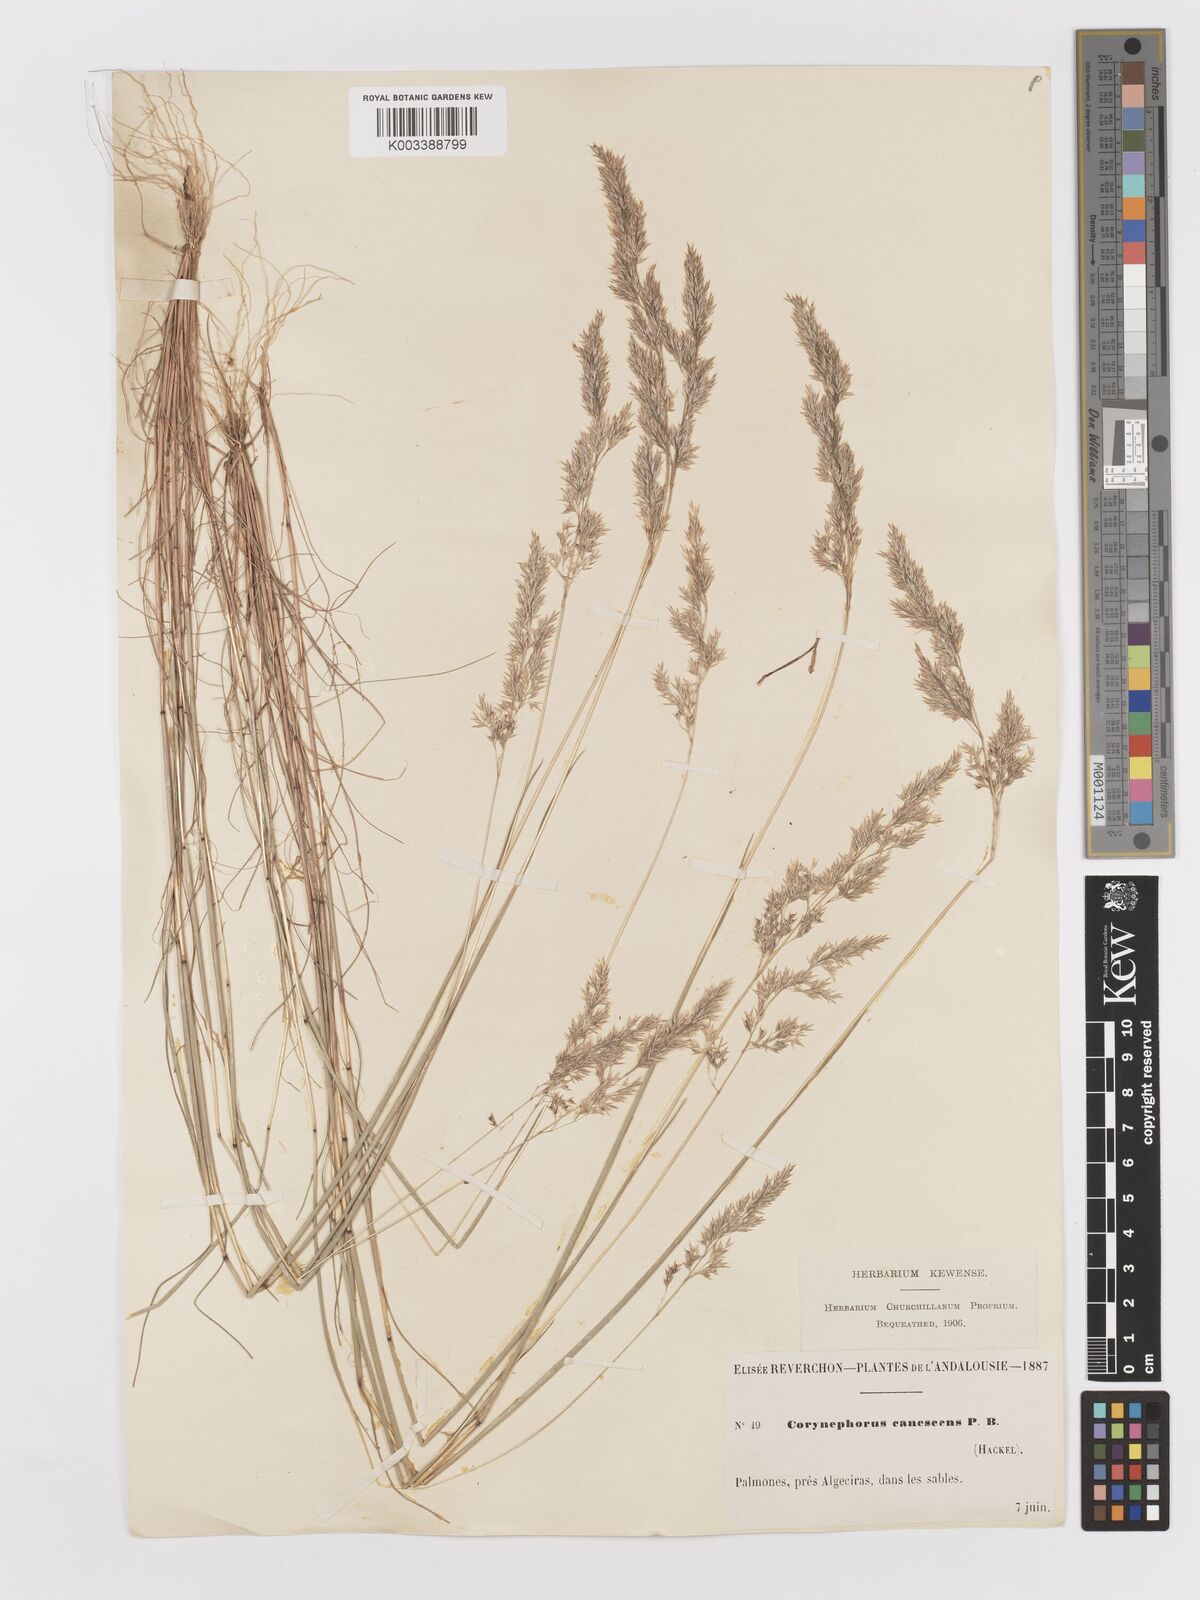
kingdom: Plantae
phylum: Tracheophyta
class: Liliopsida
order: Poales
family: Poaceae
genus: Corynephorus
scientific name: Corynephorus canescens
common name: Grey hair-grass
